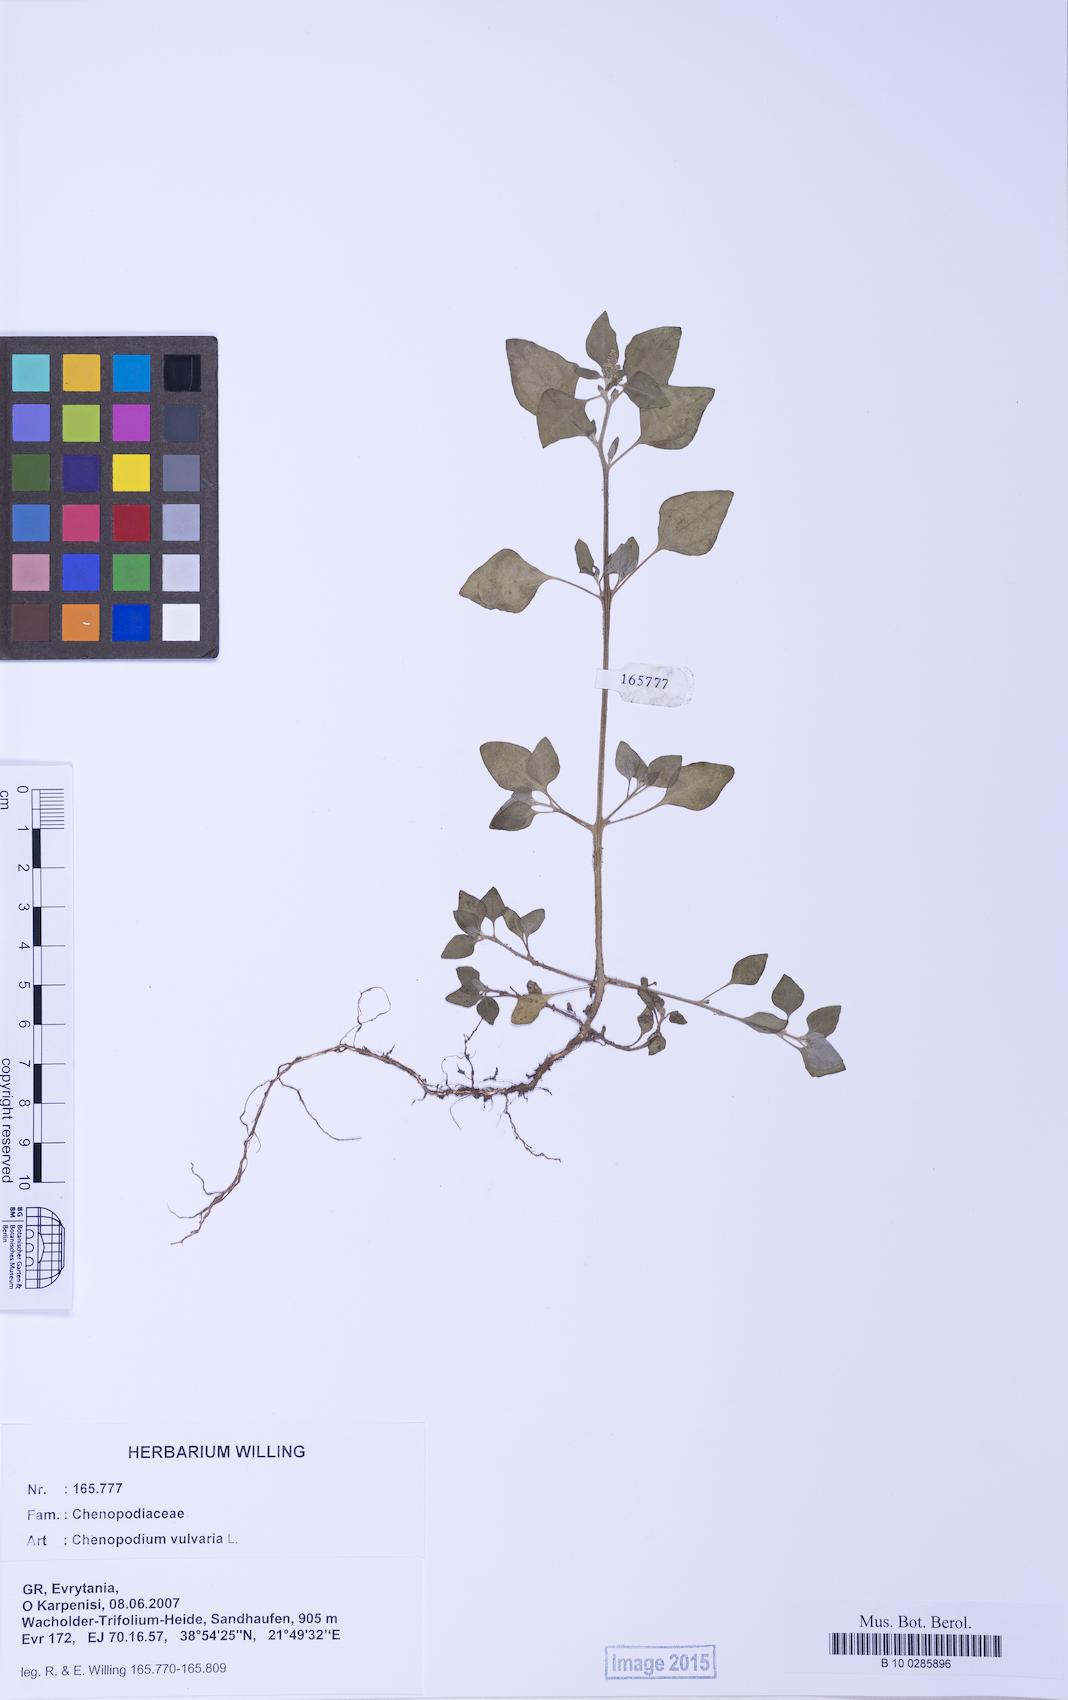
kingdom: Plantae
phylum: Tracheophyta
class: Magnoliopsida
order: Caryophyllales
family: Amaranthaceae
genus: Chenopodium
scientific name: Chenopodium vulvaria
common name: Stinking goosefoot
